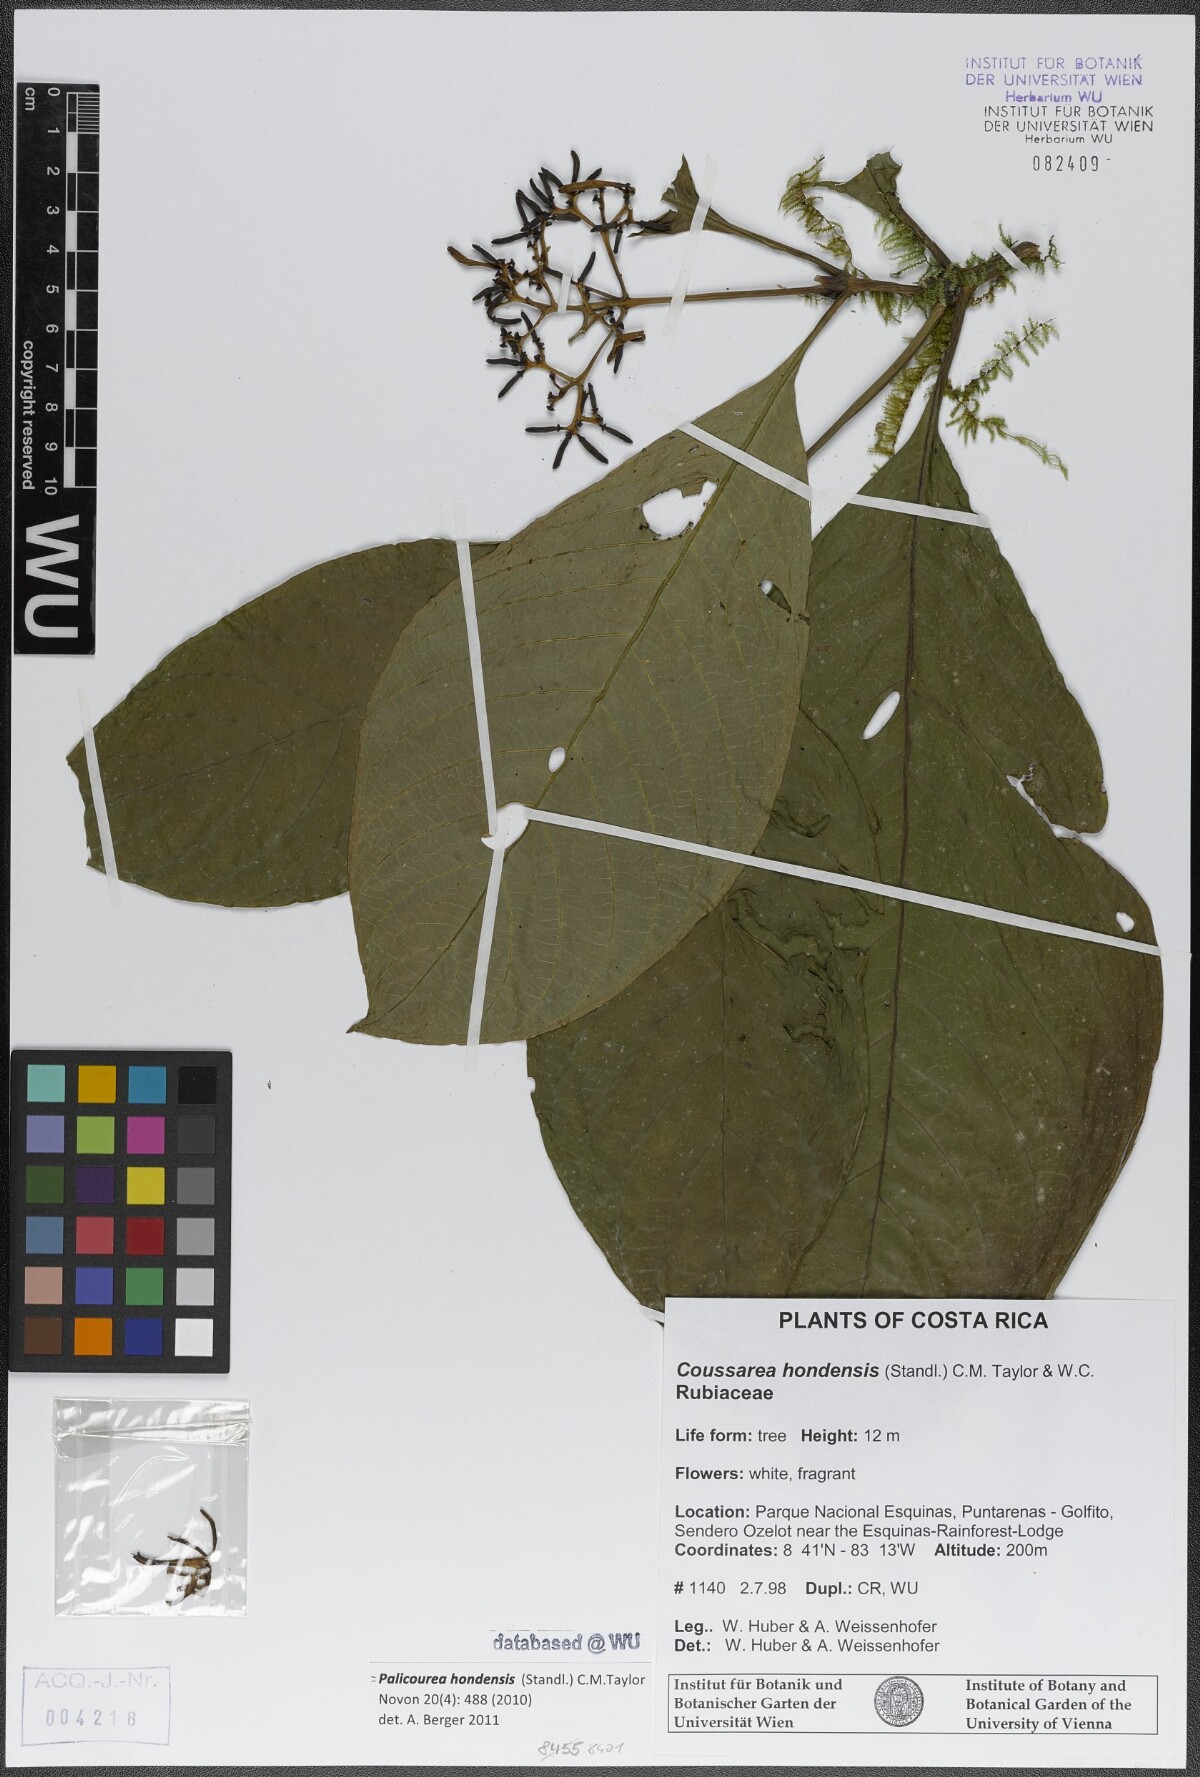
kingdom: Plantae
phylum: Tracheophyta
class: Magnoliopsida
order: Gentianales
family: Rubiaceae
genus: Palicourea
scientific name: Palicourea hondensis
